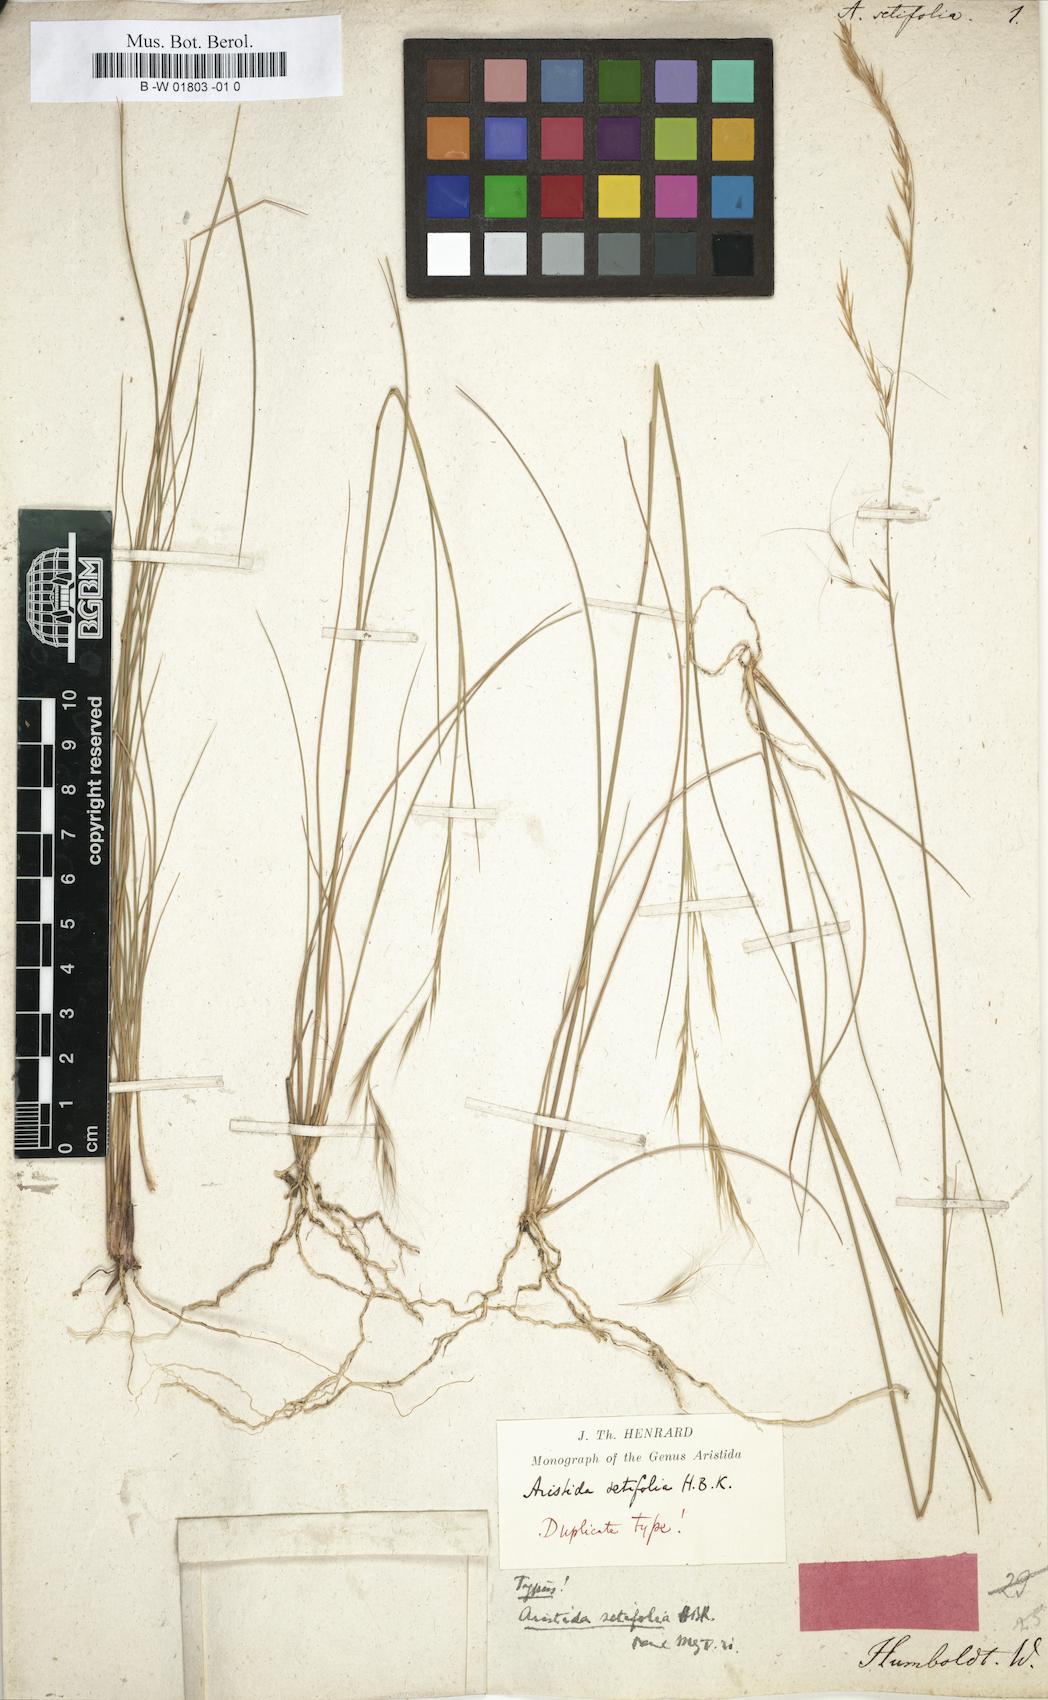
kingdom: Plantae
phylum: Tracheophyta
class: Liliopsida
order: Poales
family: Poaceae
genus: Aristida
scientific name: Aristida setifolia
